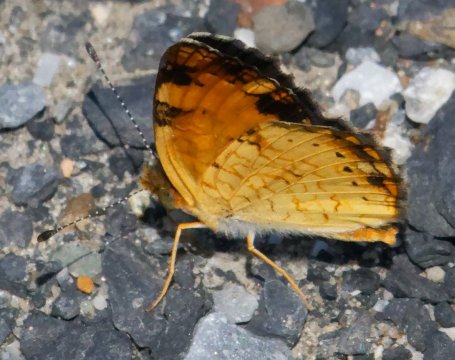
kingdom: Animalia
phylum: Arthropoda
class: Insecta
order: Lepidoptera
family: Nymphalidae
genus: Phyciodes
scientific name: Phyciodes tharos
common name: Pearl Crescent
